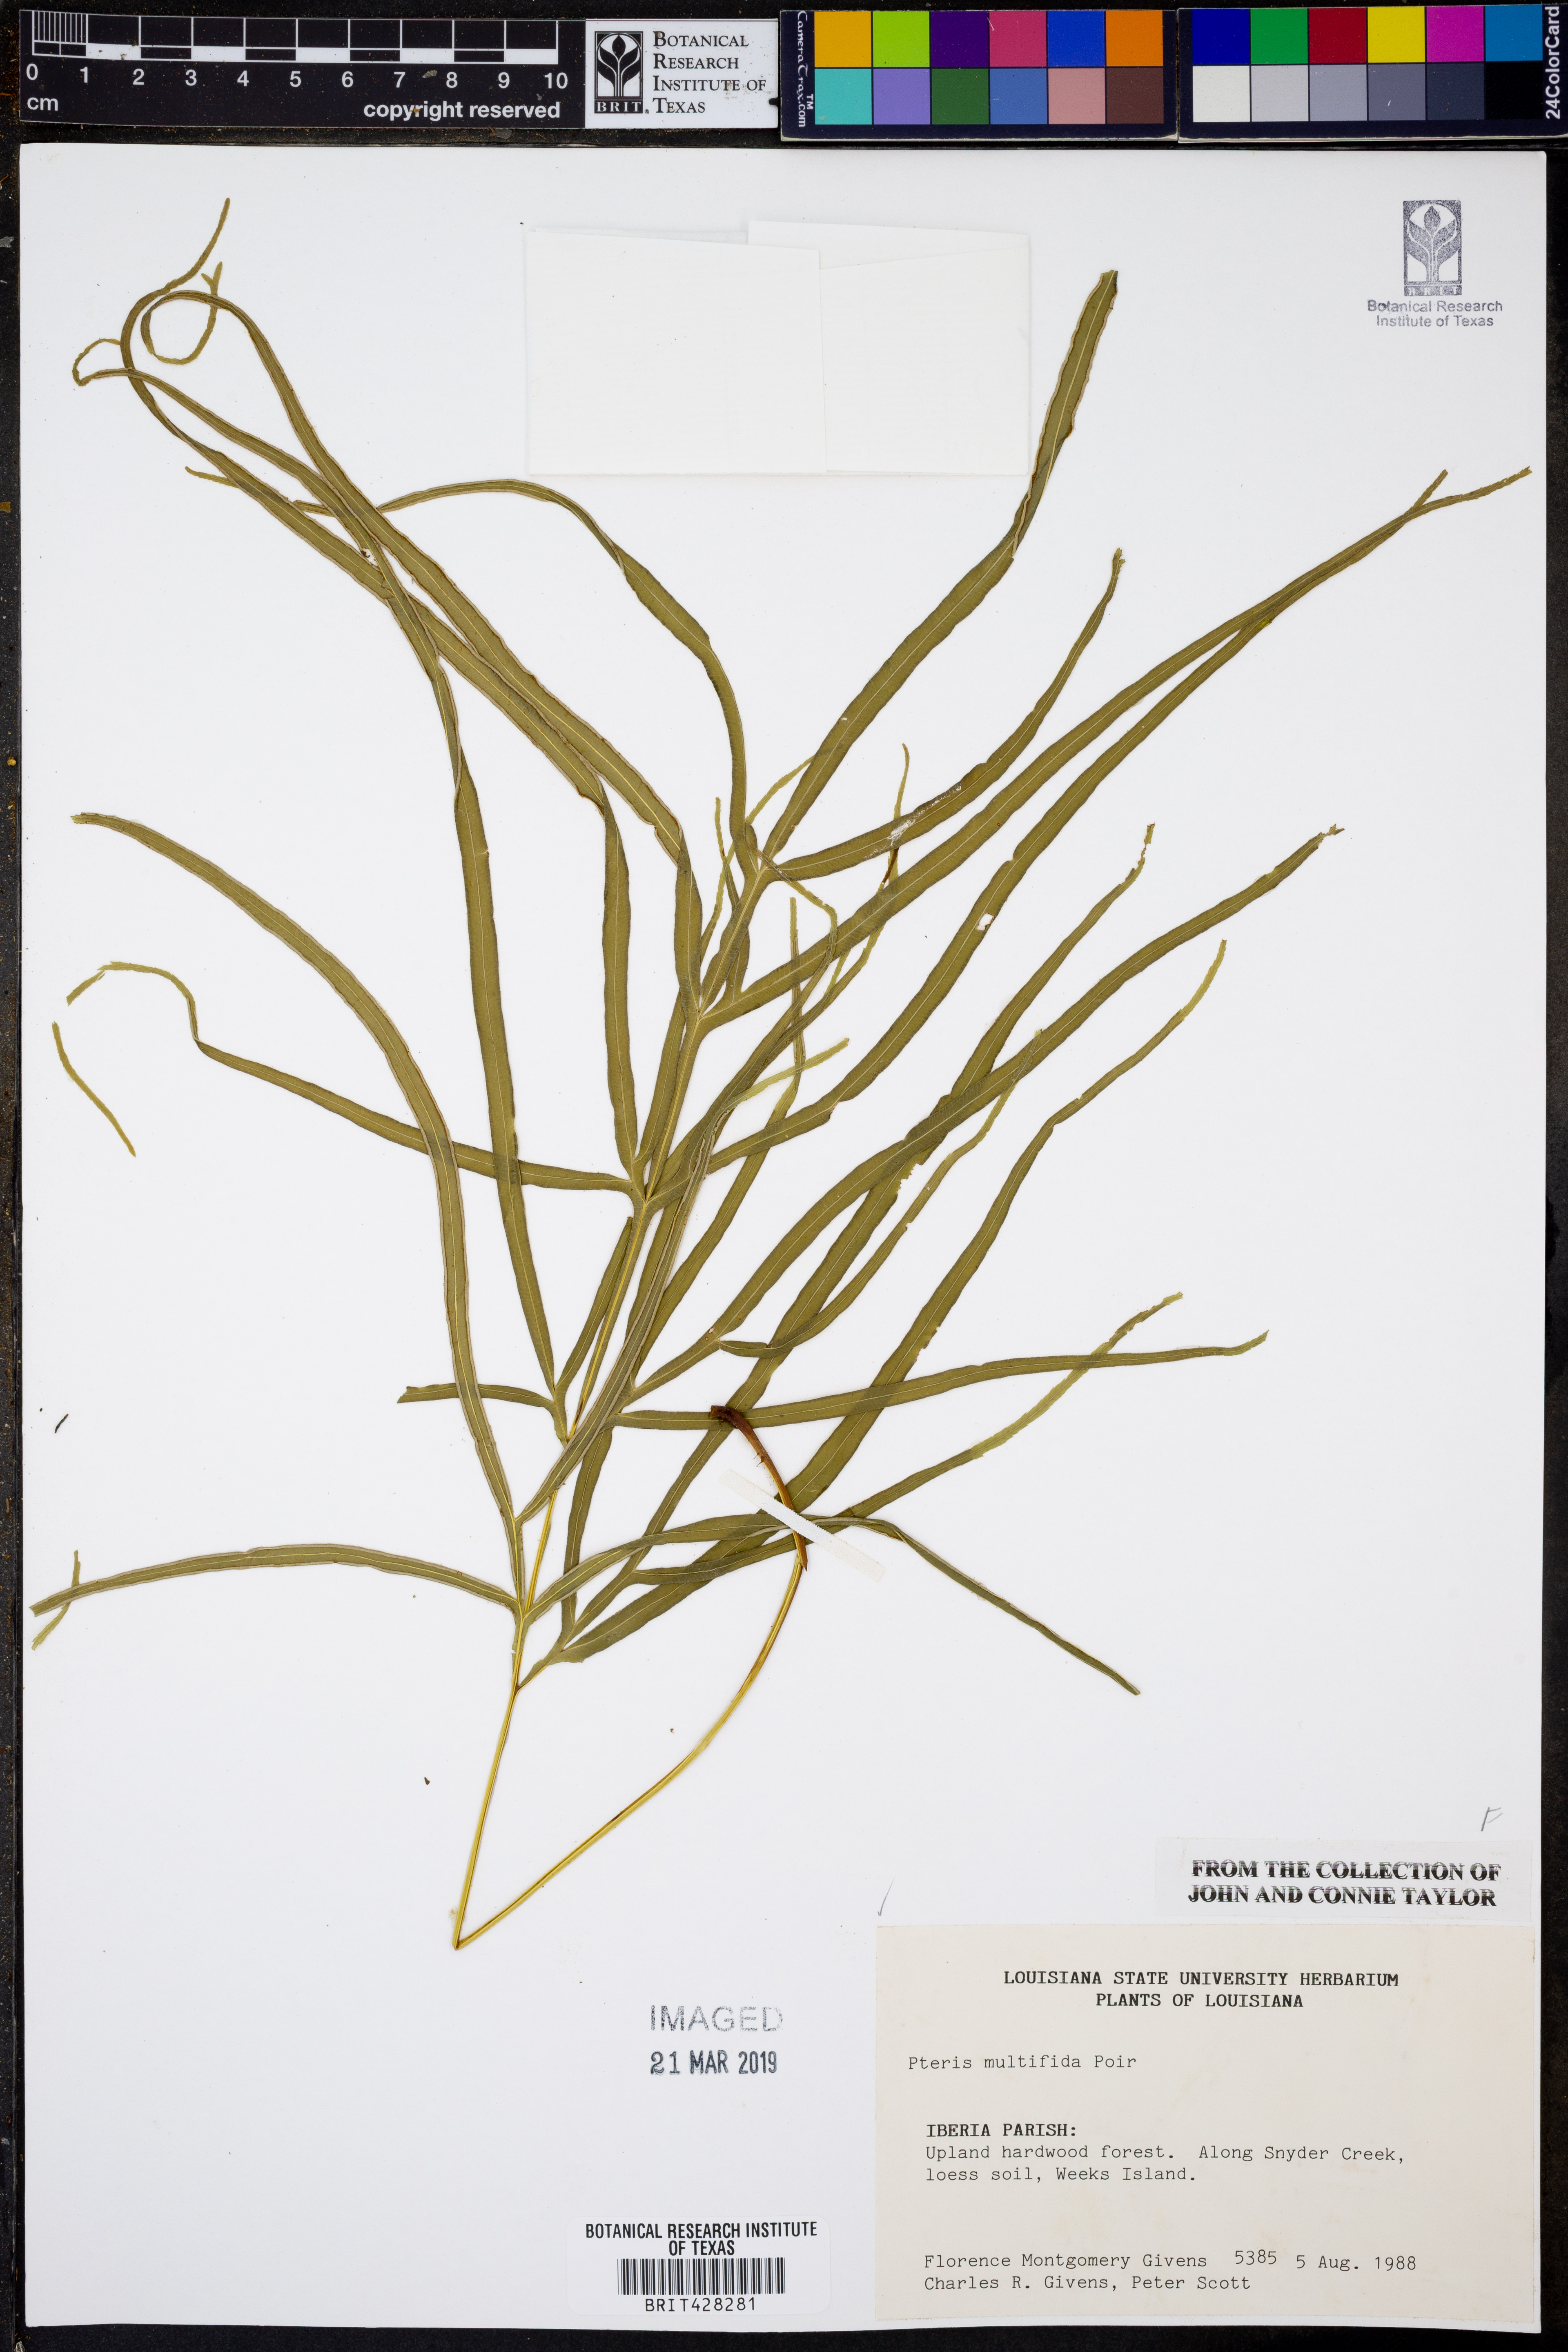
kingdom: Plantae
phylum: Tracheophyta
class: Polypodiopsida
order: Polypodiales
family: Pteridaceae
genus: Pteris
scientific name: Pteris multifida
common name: Spider brake
